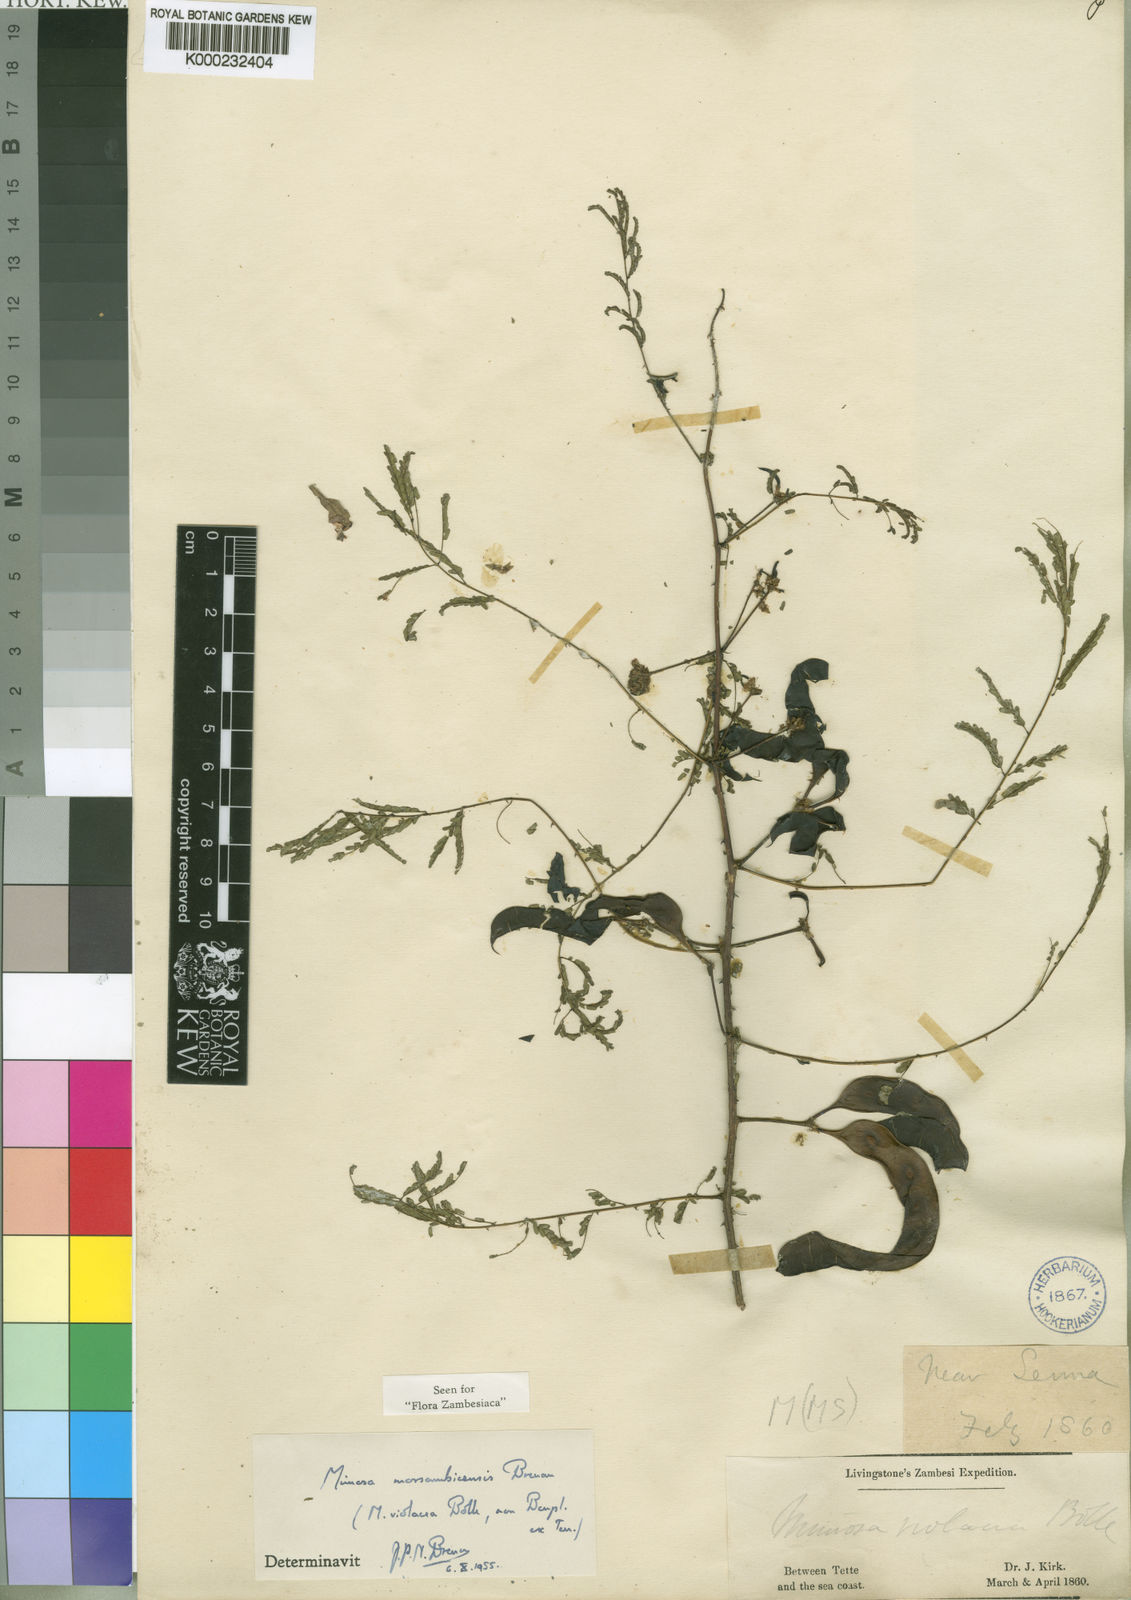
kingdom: Plantae
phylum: Tracheophyta
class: Magnoliopsida
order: Fabales
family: Fabaceae
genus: Mimosa
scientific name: Mimosa
